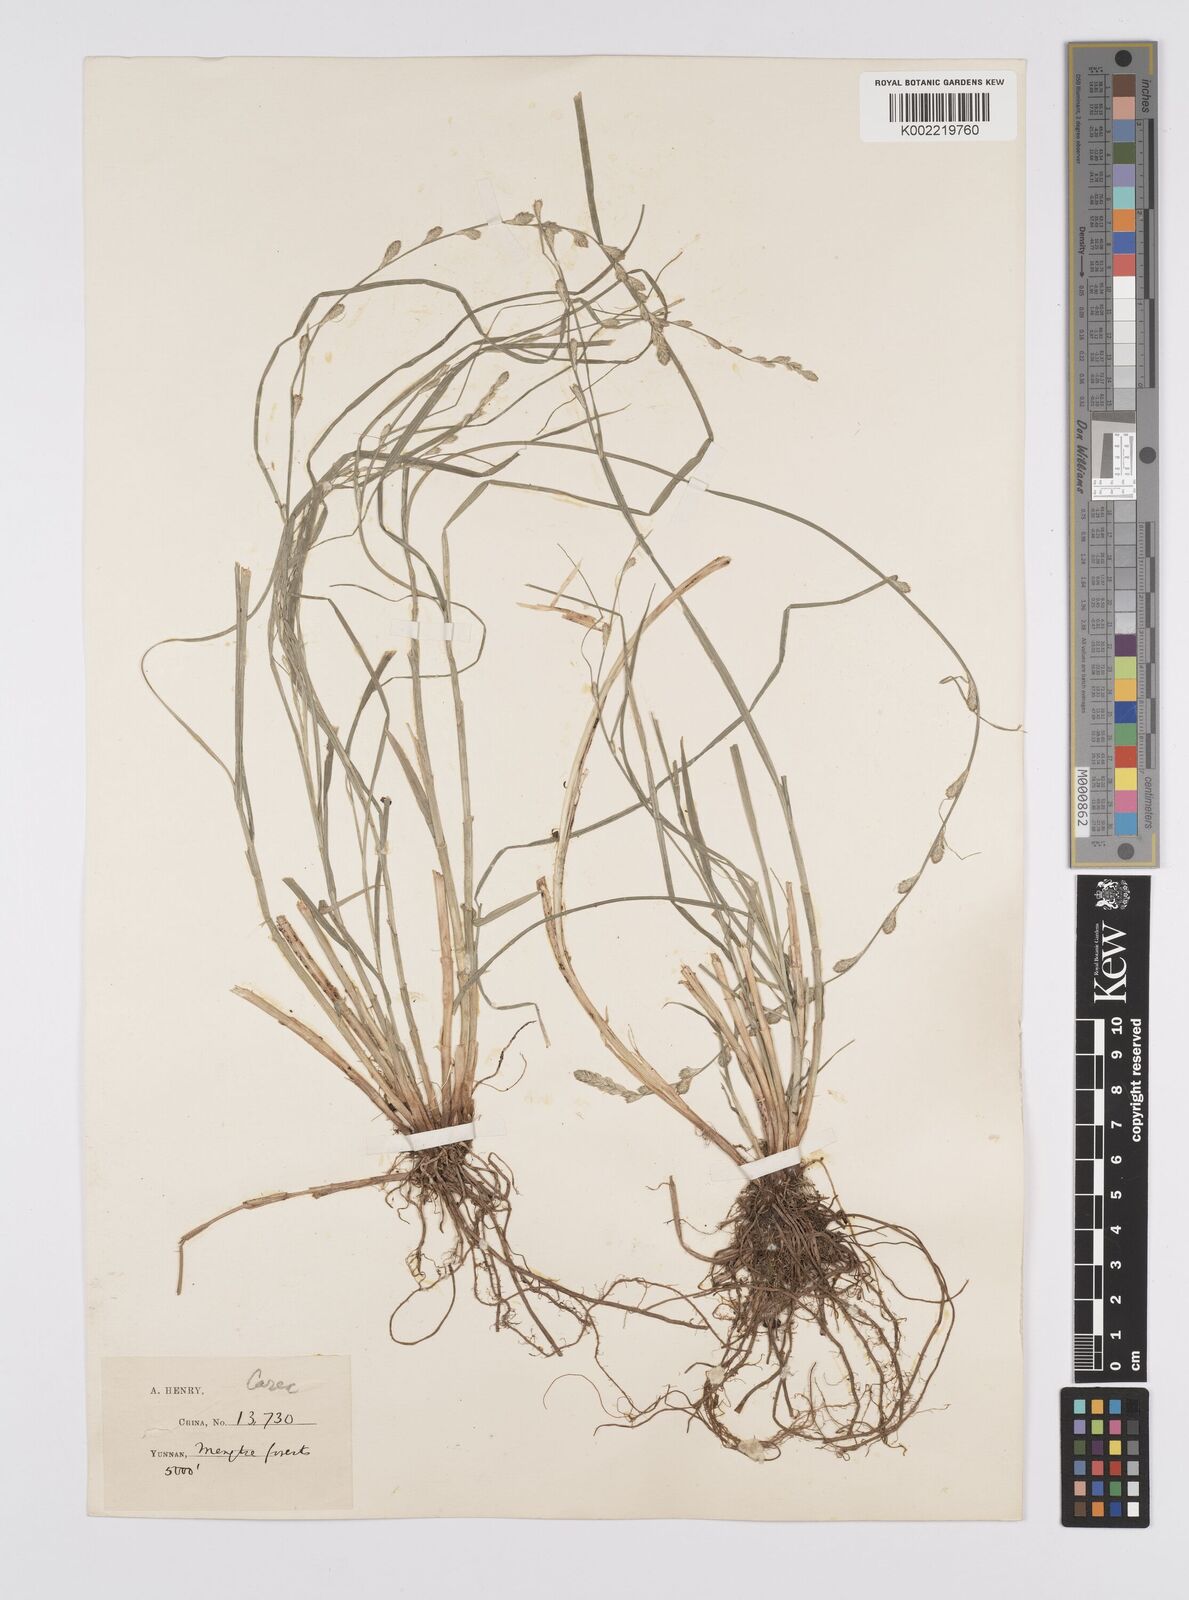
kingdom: Plantae
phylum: Tracheophyta
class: Liliopsida
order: Poales
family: Cyperaceae
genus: Carex
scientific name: Carex remota
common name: Remote sedge
